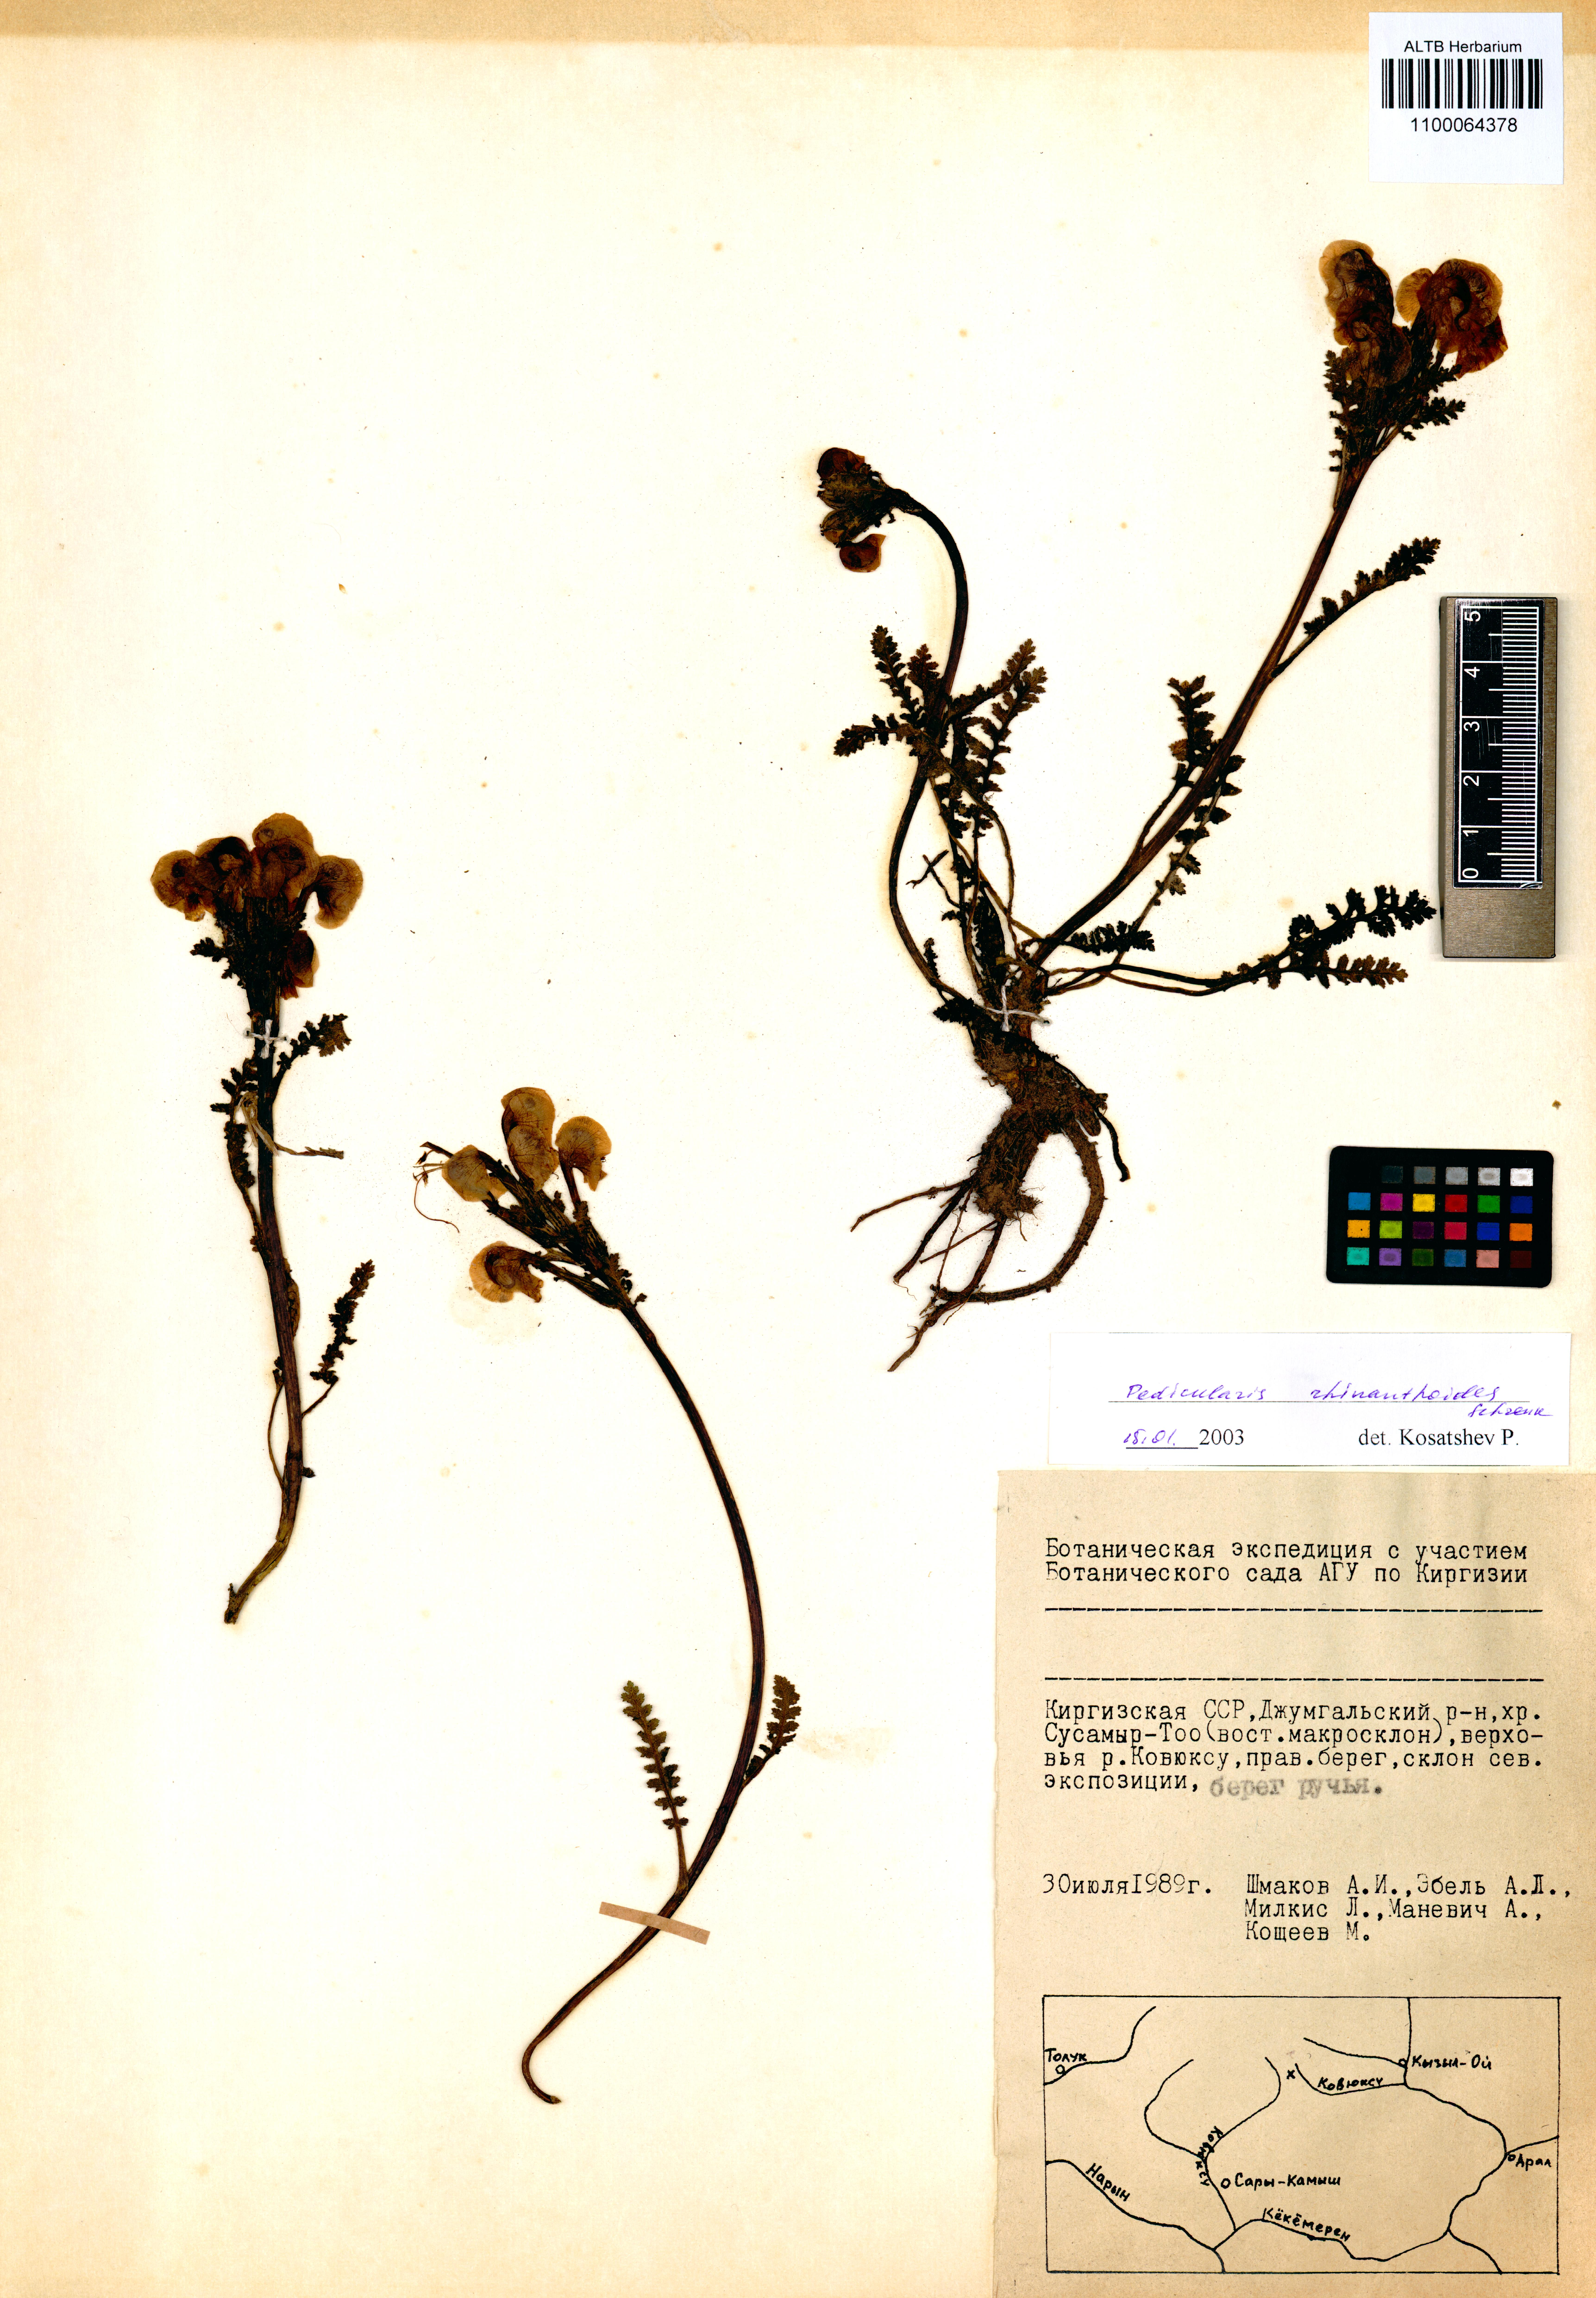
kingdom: Plantae
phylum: Tracheophyta
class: Magnoliopsida
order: Lamiales
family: Orobanchaceae
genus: Pedicularis
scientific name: Pedicularis rhinanthoides
